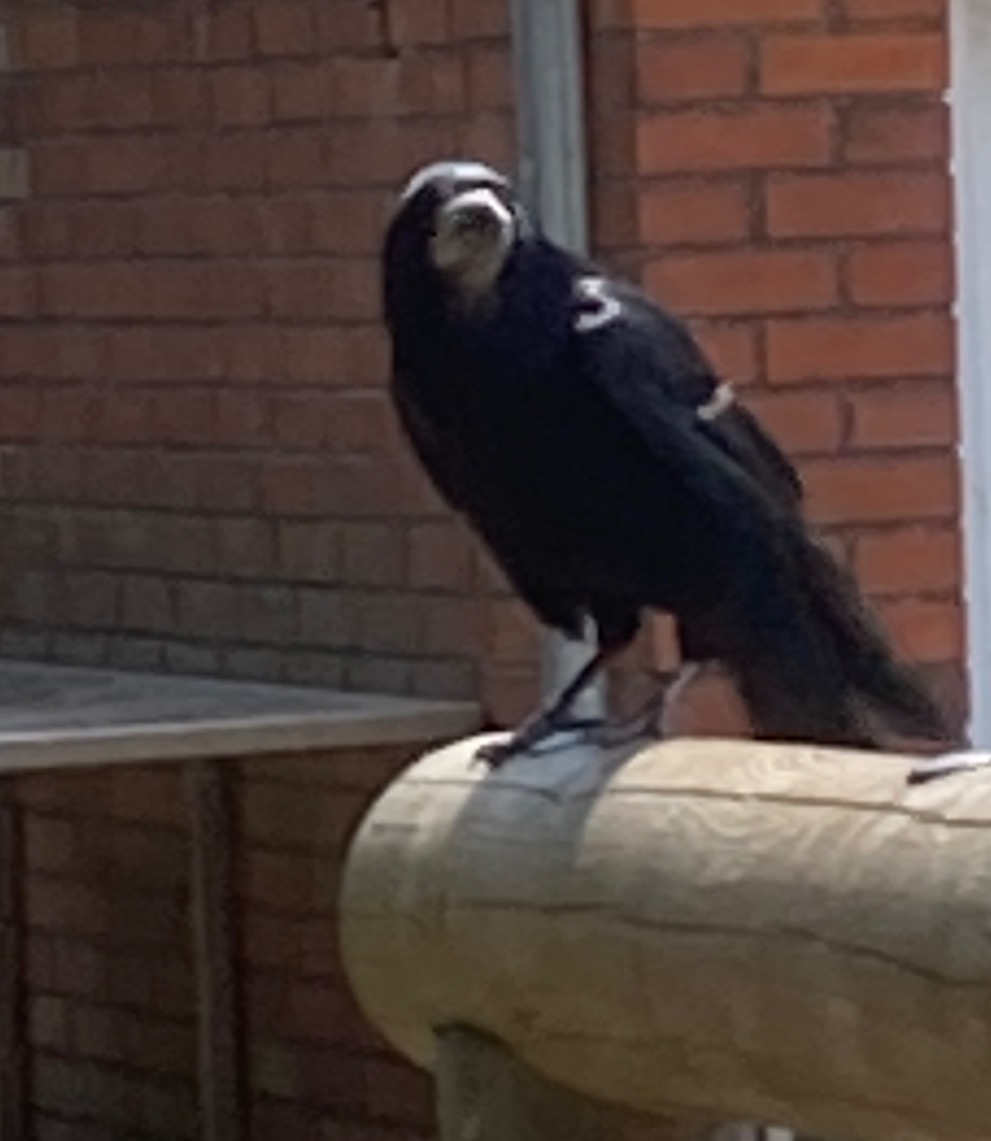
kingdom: Animalia
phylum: Chordata
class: Aves
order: Passeriformes
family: Corvidae
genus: Corvus
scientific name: Corvus frugilegus
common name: Råge
